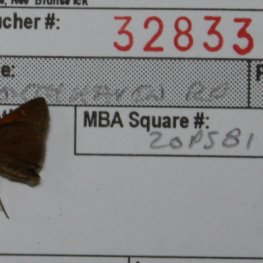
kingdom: Animalia
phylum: Arthropoda
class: Insecta
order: Lepidoptera
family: Hesperiidae
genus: Polites
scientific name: Polites themistocles
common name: Tawny-edged Skipper
